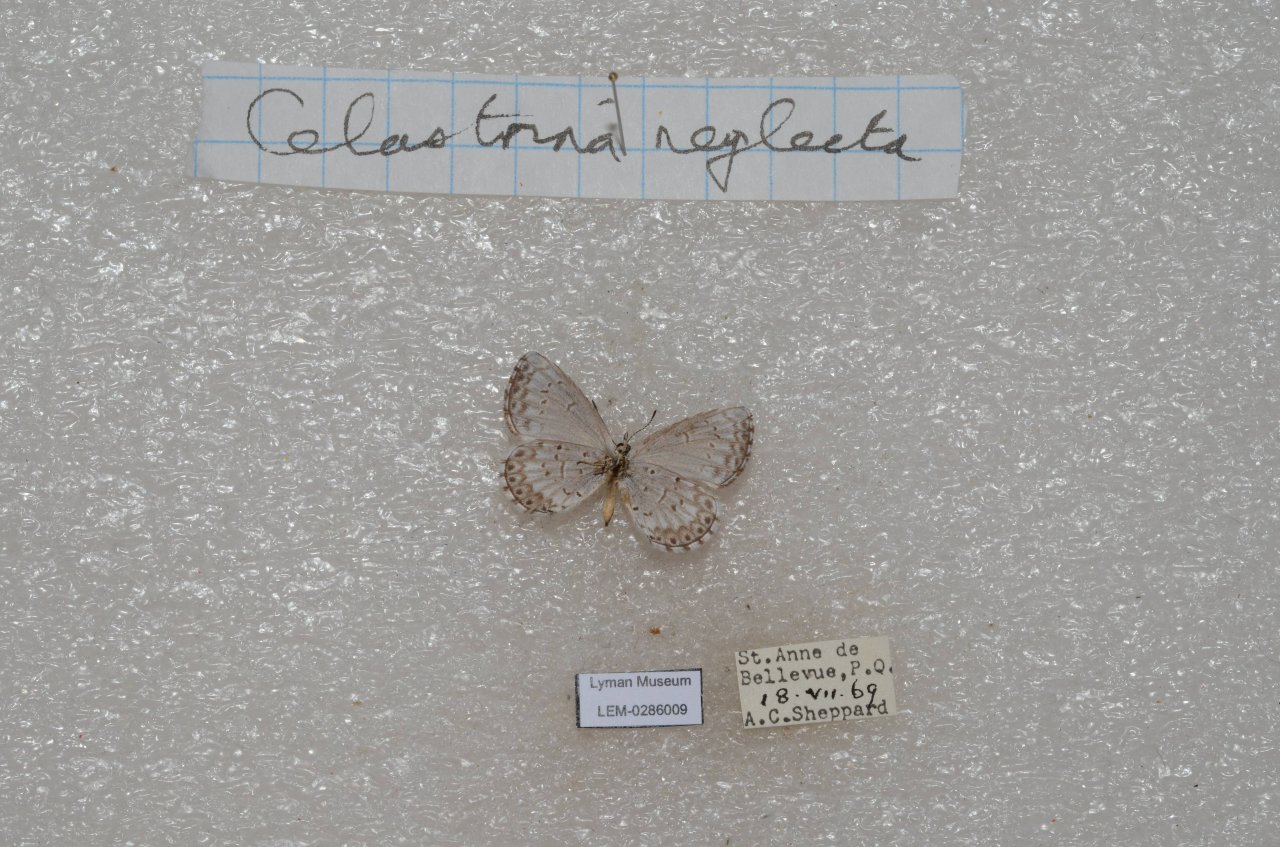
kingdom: Animalia
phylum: Arthropoda
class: Insecta
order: Lepidoptera
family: Lycaenidae
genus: Celastrina
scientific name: Celastrina lucia
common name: Northern Spring Azure
